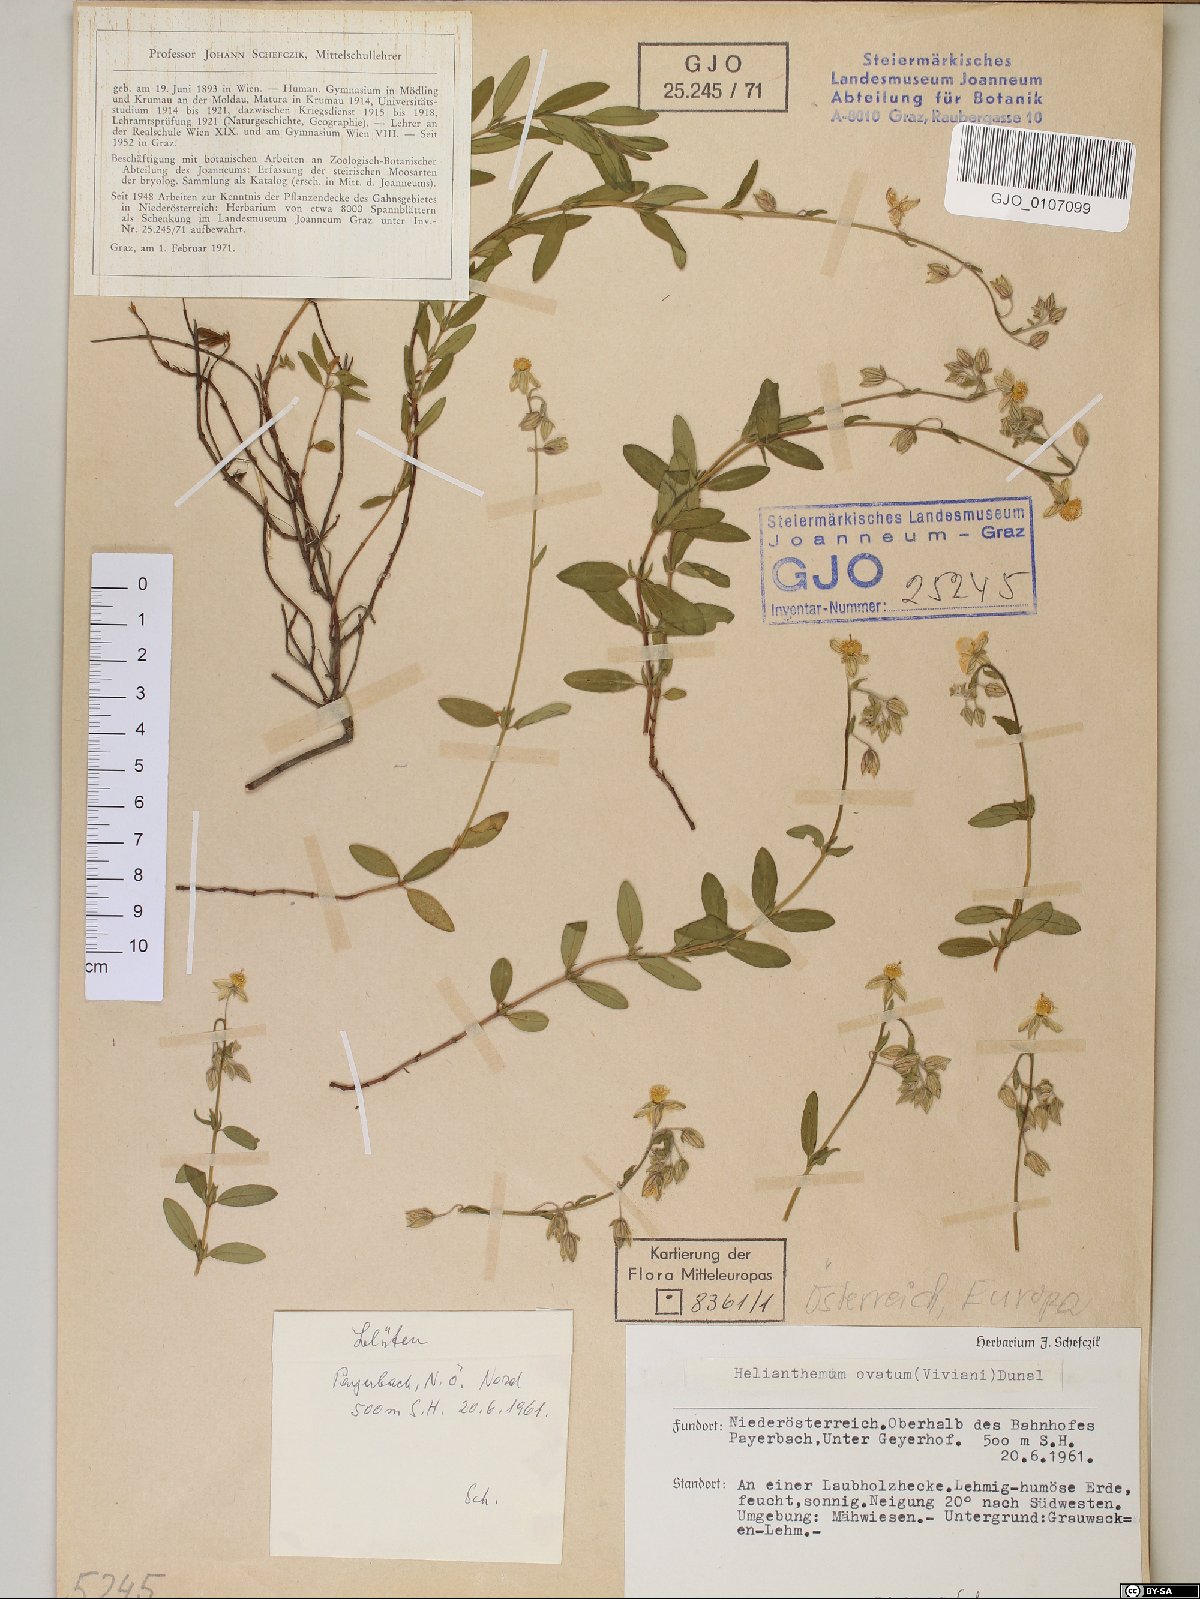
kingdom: Plantae
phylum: Tracheophyta
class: Magnoliopsida
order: Malvales
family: Cistaceae
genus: Helianthemum
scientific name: Helianthemum nummularium
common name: Common rock-rose
